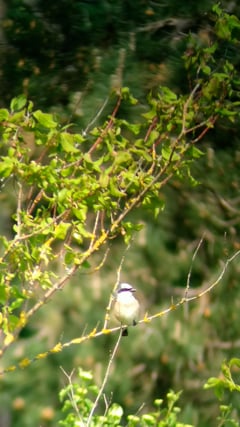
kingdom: Animalia
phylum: Chordata
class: Aves
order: Passeriformes
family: Laniidae
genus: Lanius
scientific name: Lanius collurio
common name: Red-backed shrike
